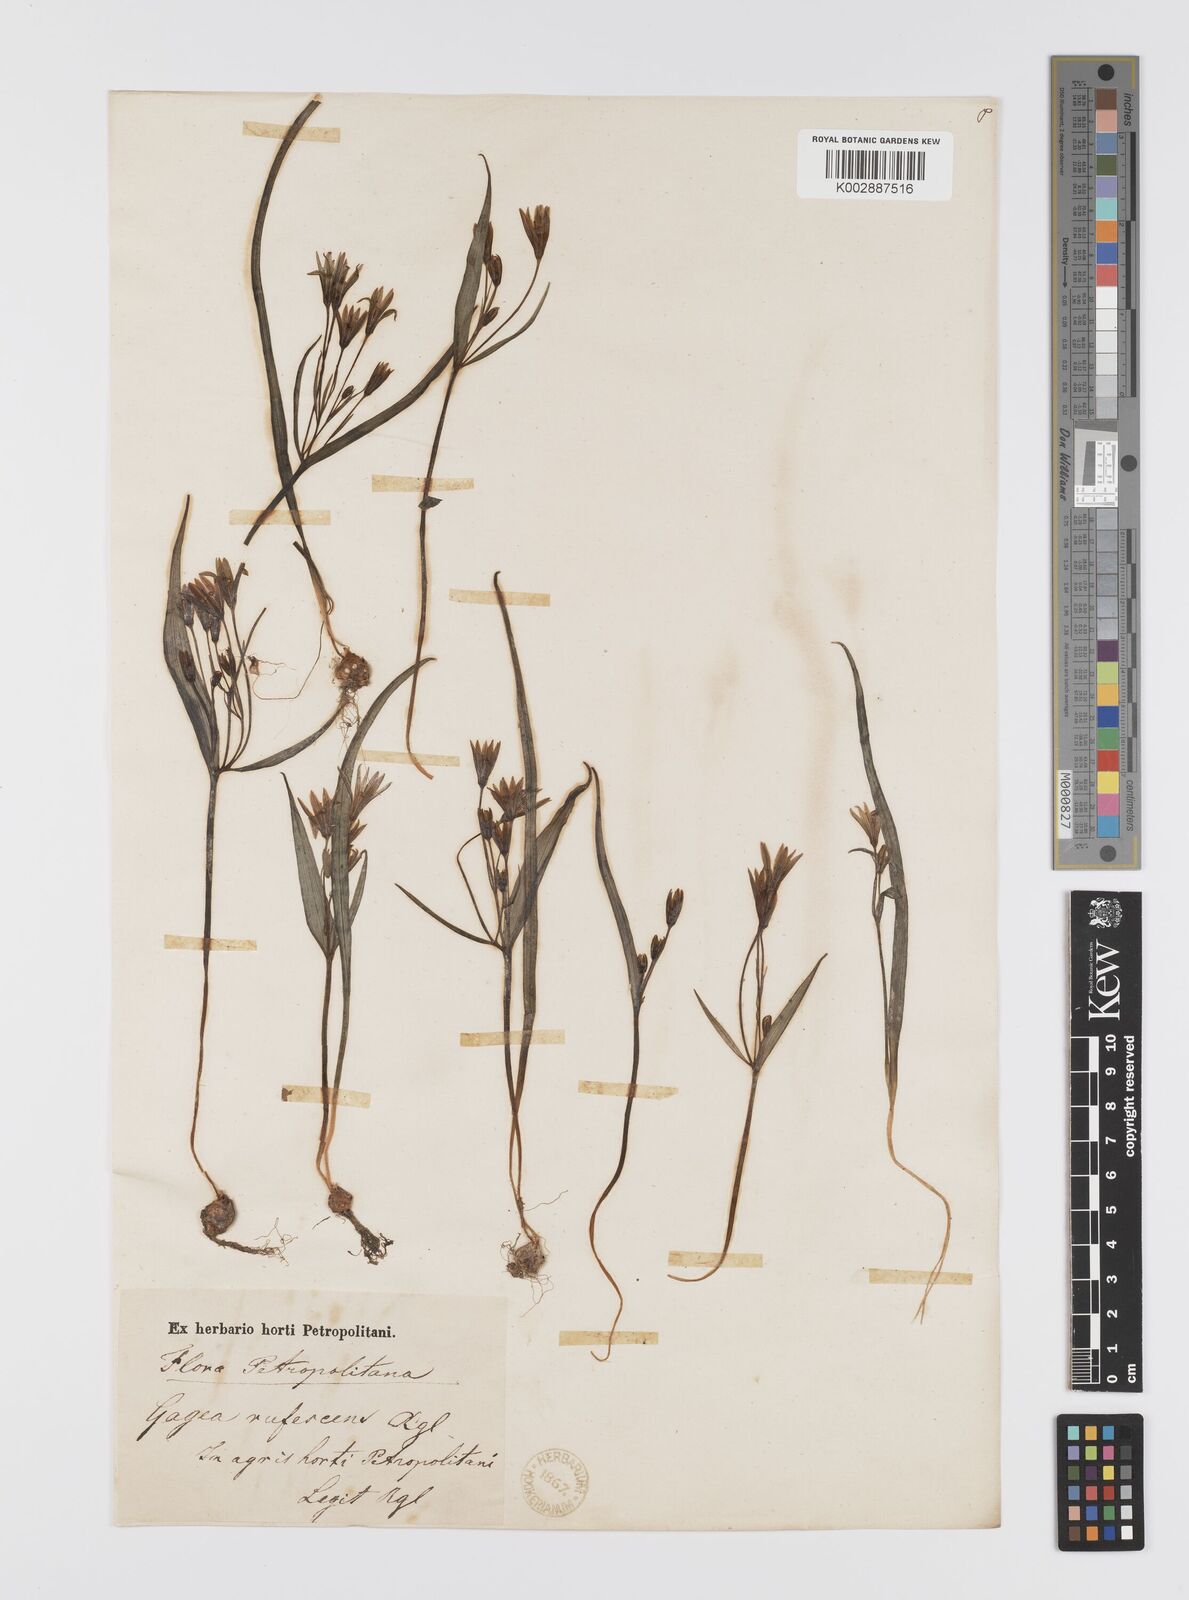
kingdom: Plantae
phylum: Tracheophyta
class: Liliopsida
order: Liliales
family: Liliaceae
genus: Gagea
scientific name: Gagea lutea
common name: Yellow star-of-bethlehem
